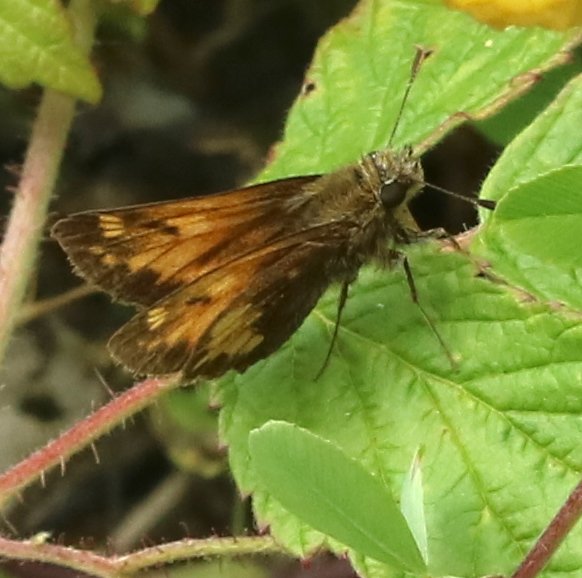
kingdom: Animalia
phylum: Arthropoda
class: Insecta
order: Lepidoptera
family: Hesperiidae
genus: Lon
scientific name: Lon hobomok
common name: Hobomok Skipper
